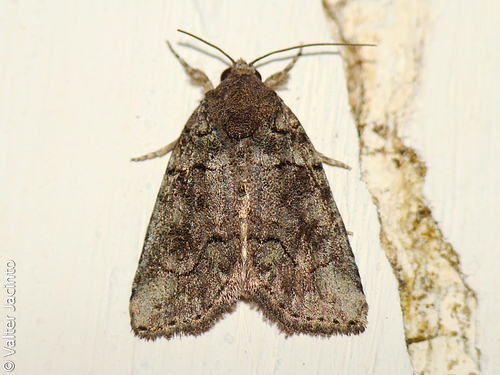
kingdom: Animalia
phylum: Arthropoda
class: Insecta
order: Lepidoptera
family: Noctuidae
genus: Bryophila
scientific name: Bryophila ravula
